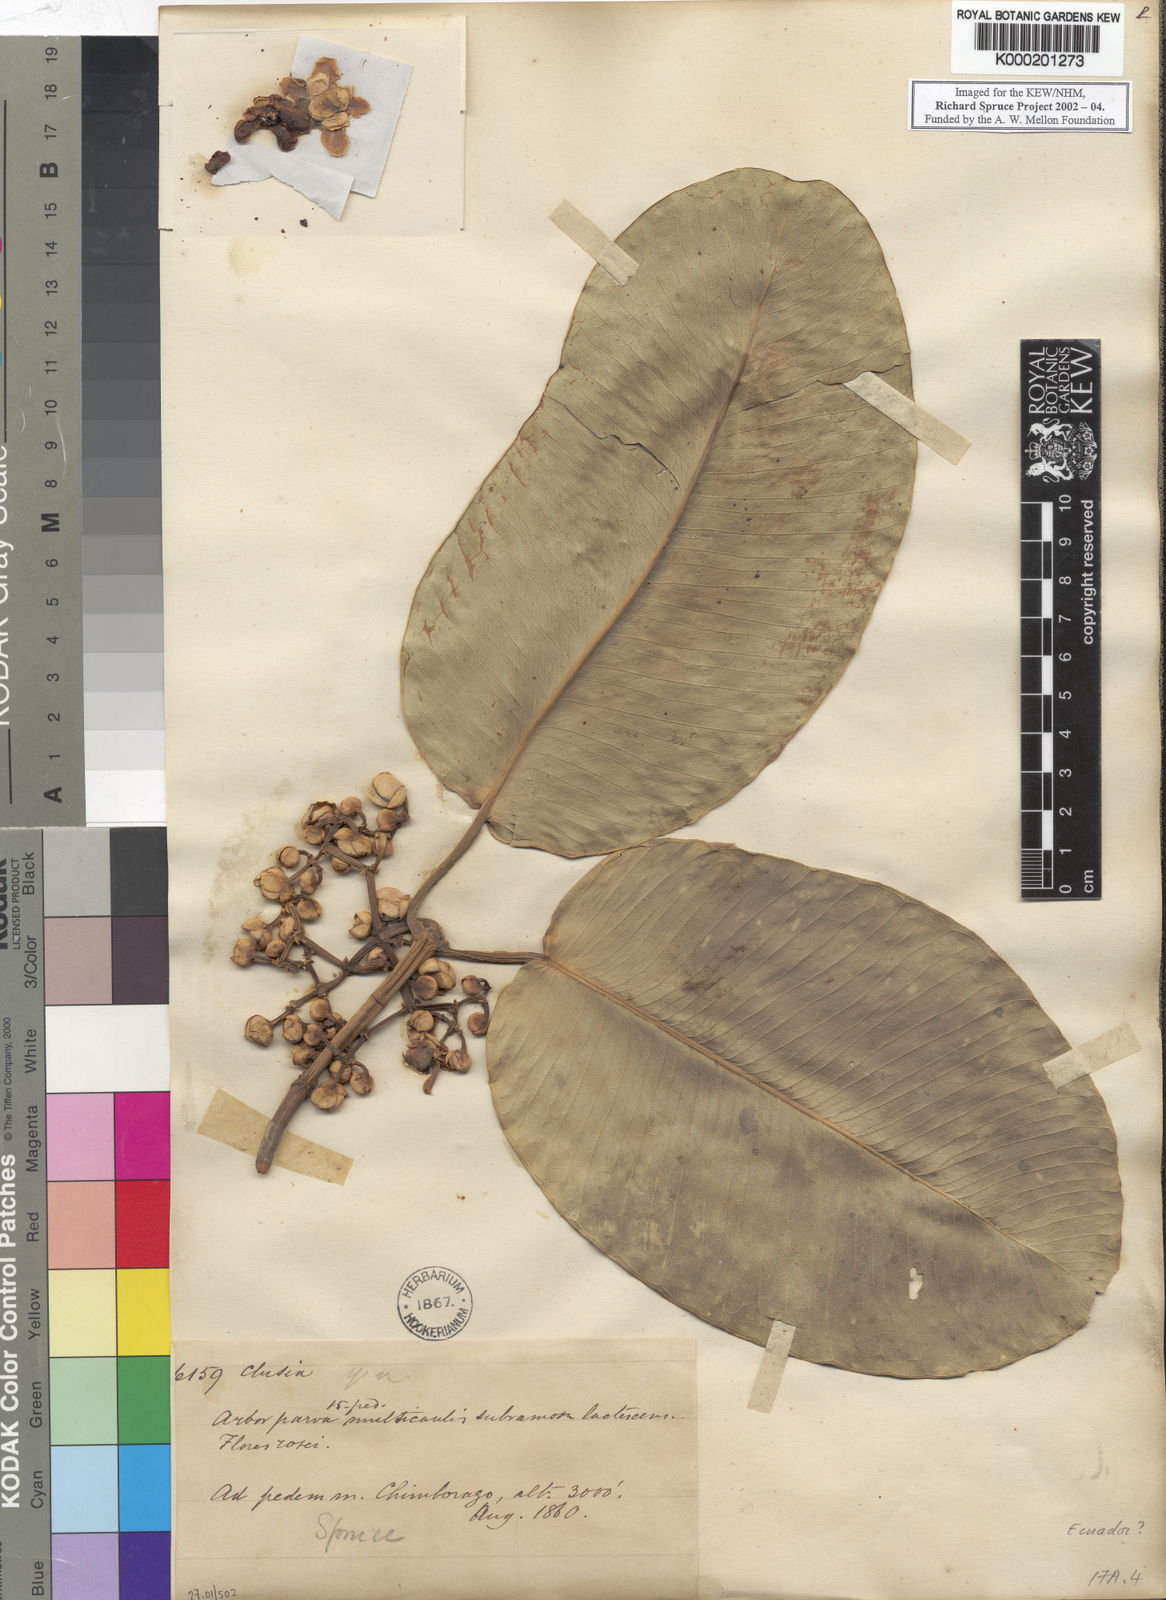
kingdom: Plantae
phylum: Tracheophyta
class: Magnoliopsida
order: Malpighiales
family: Clusiaceae
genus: Clusia
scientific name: Clusia
